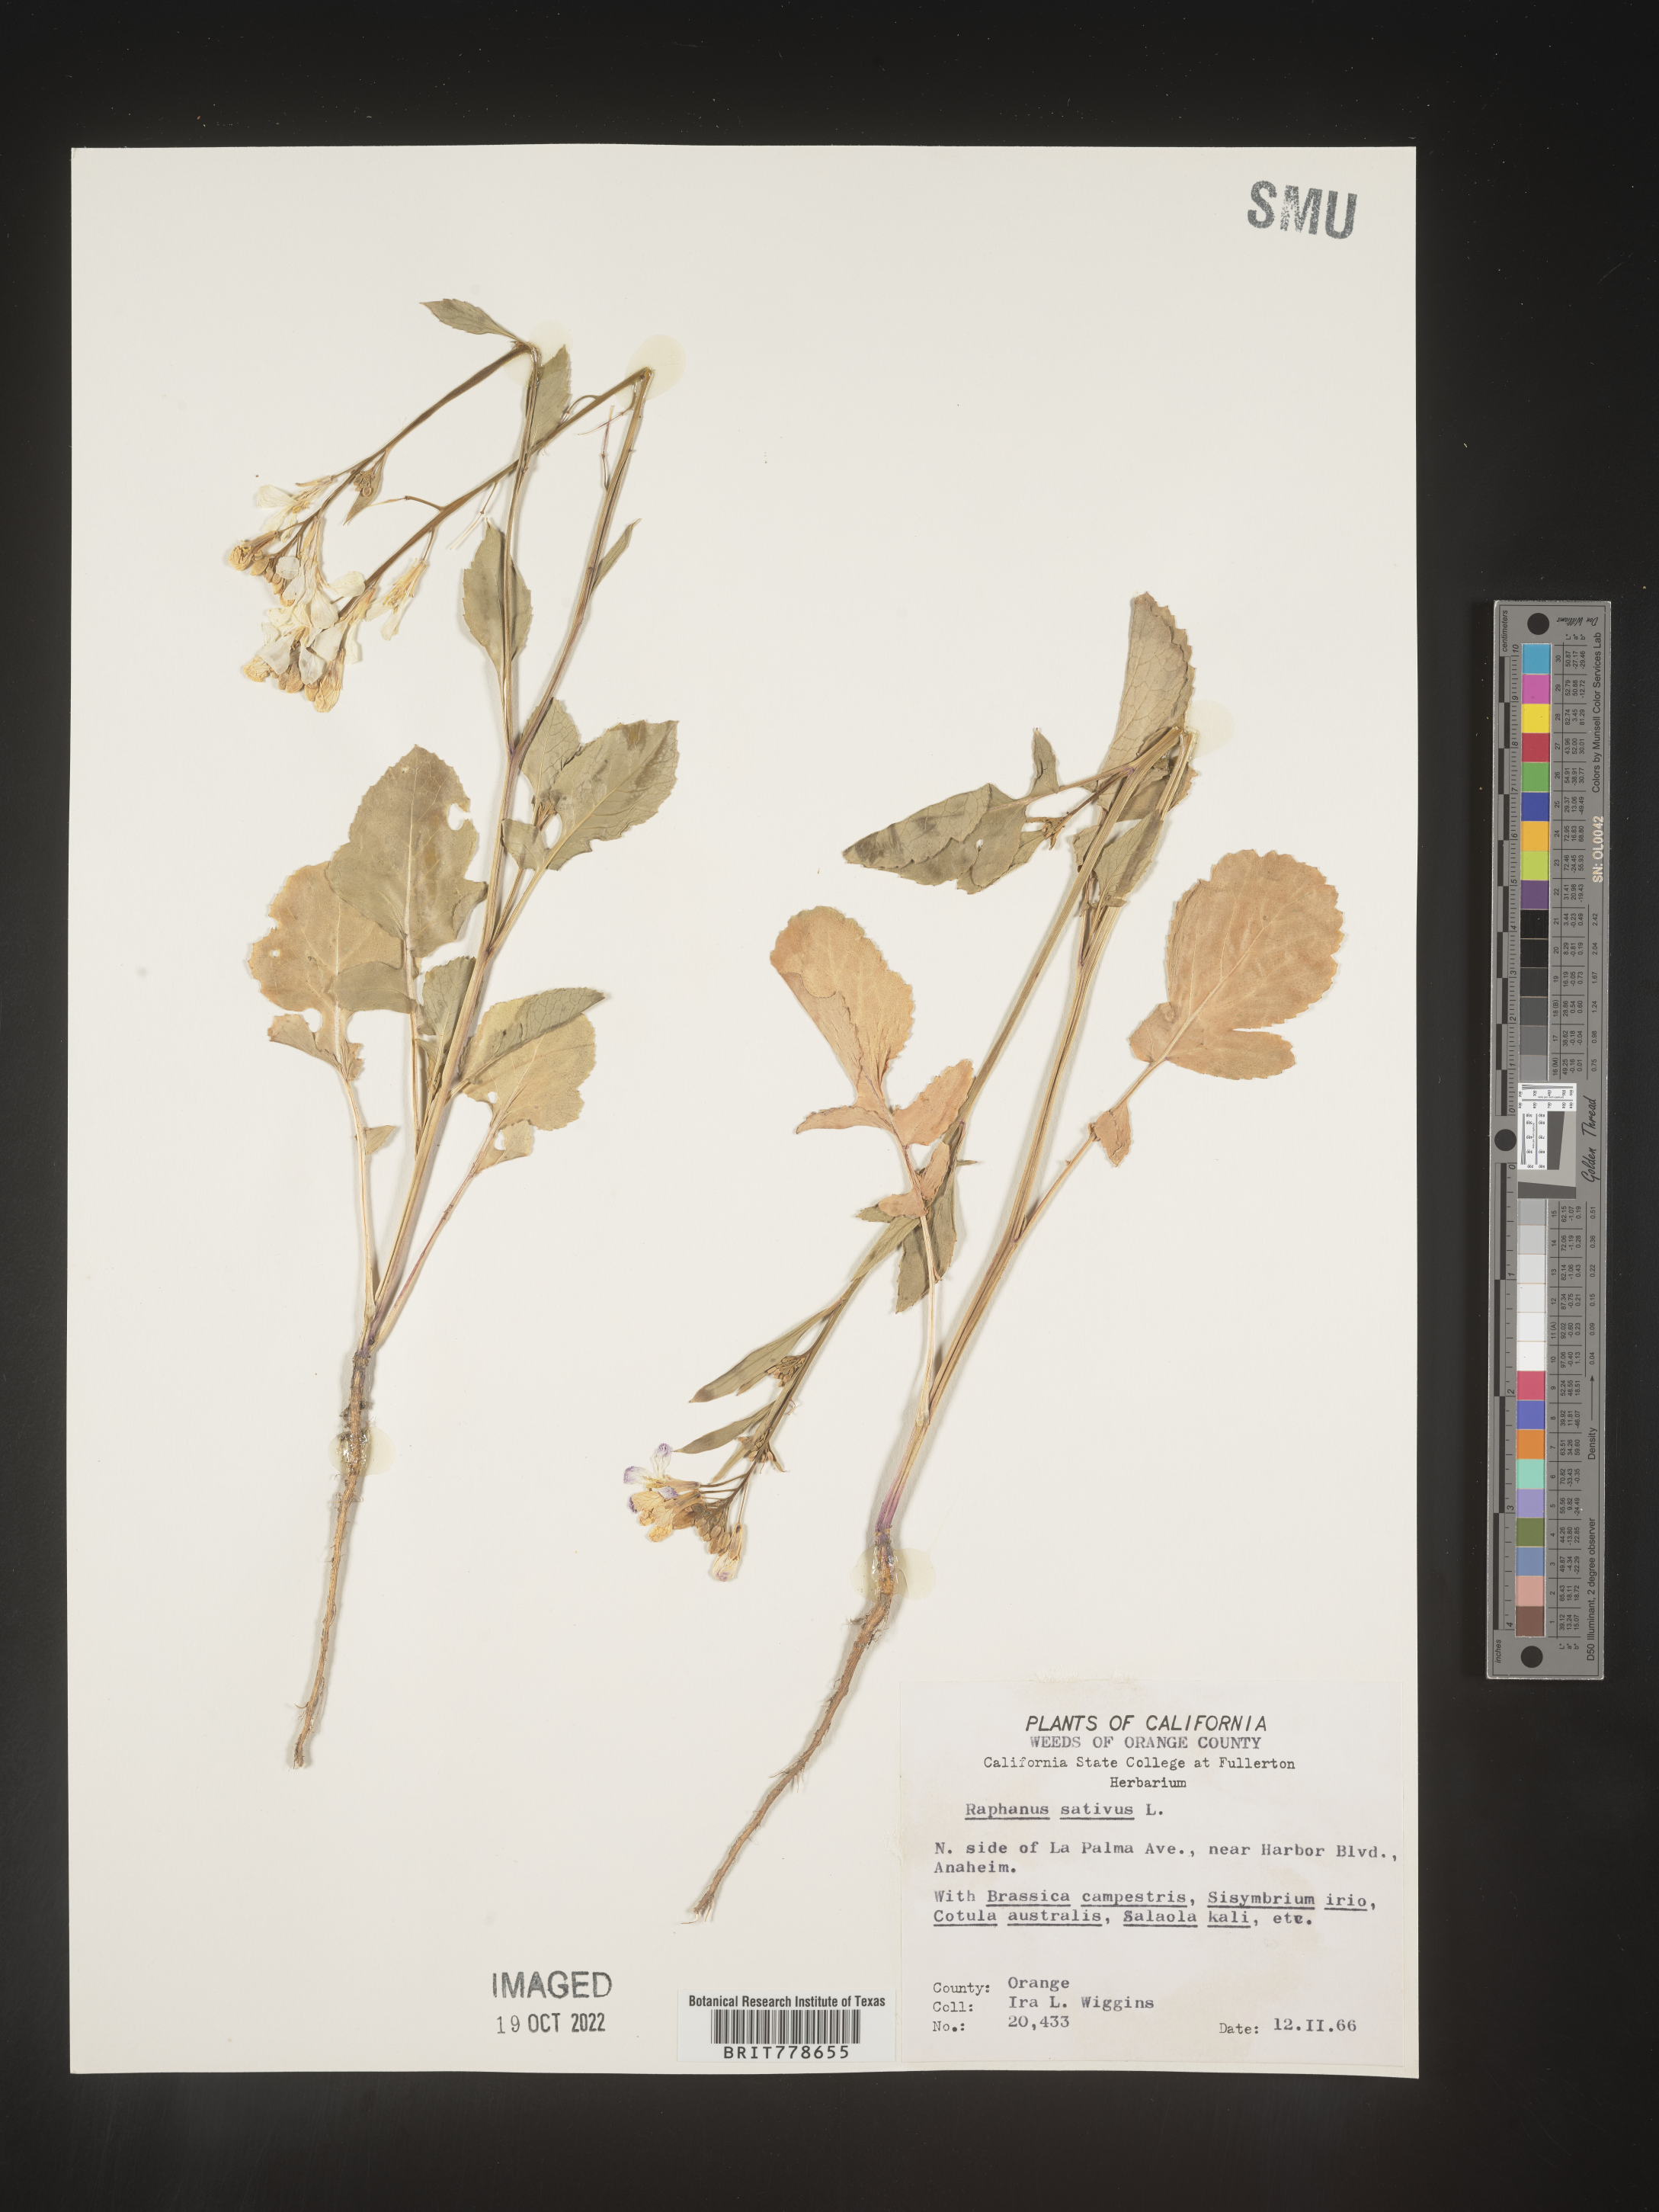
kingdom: Plantae
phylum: Tracheophyta
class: Magnoliopsida
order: Brassicales
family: Brassicaceae
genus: Raphanus
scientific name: Raphanus sativus
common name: Cultivated radish
